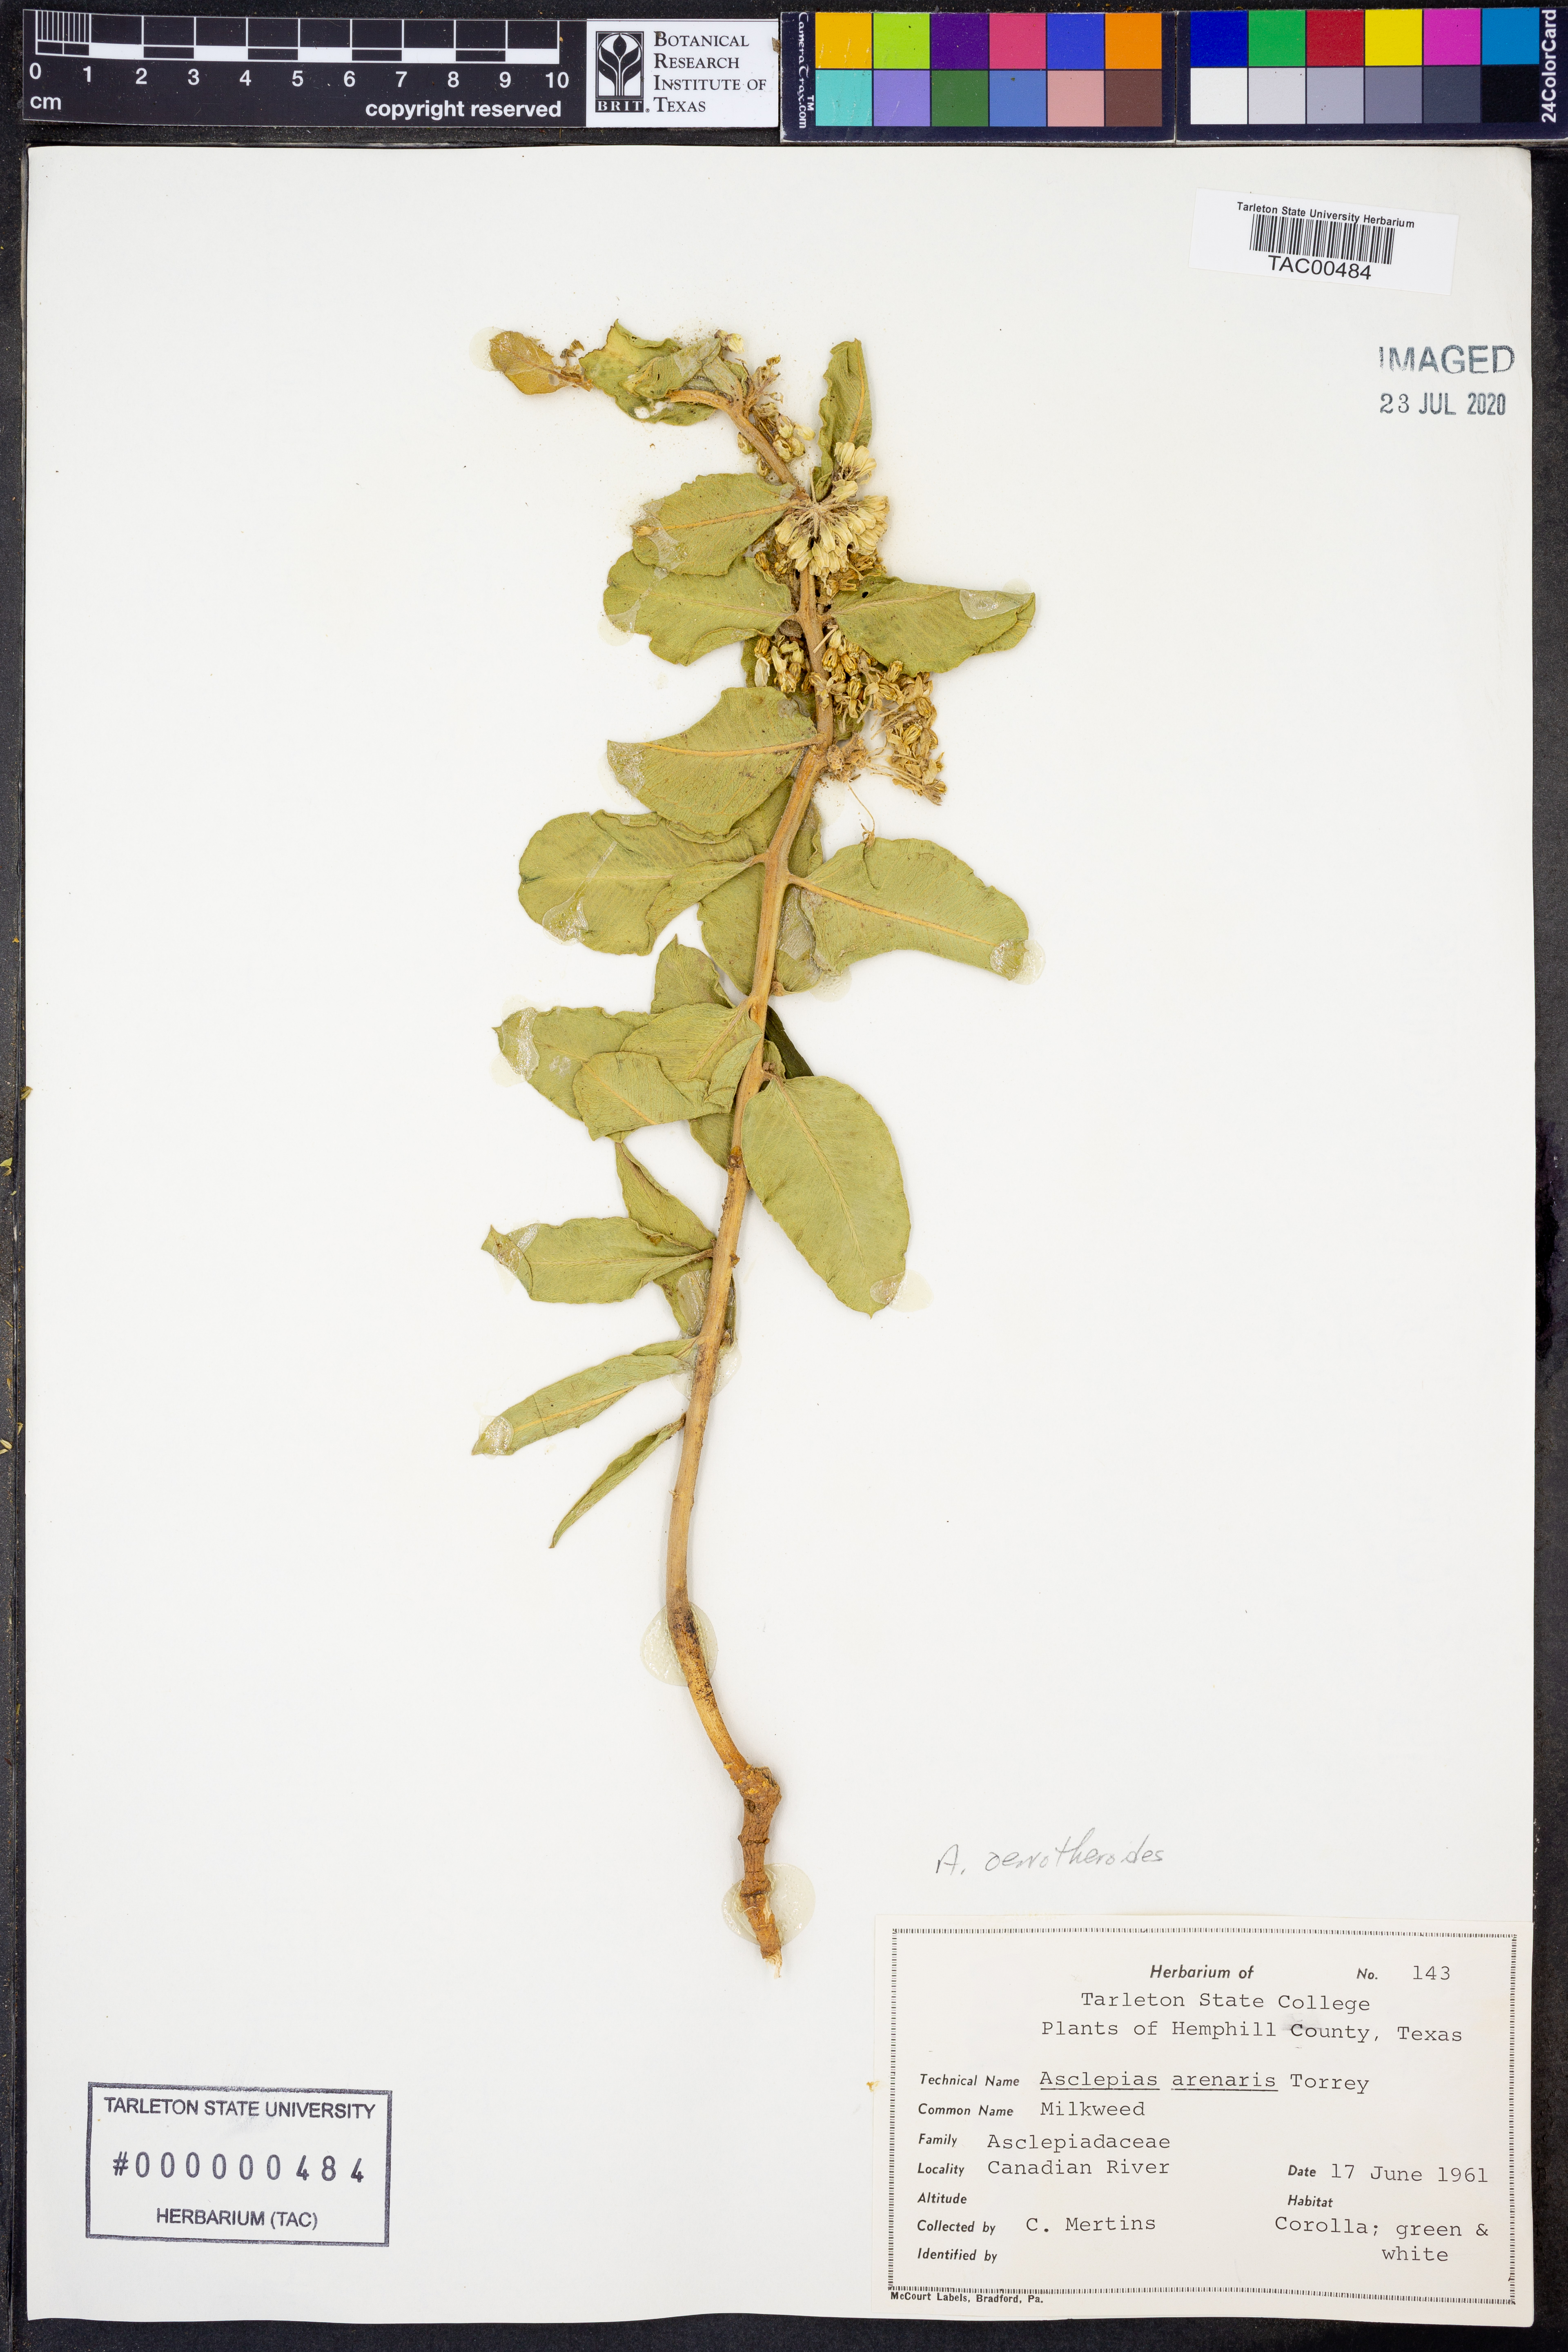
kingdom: Plantae
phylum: Tracheophyta
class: Magnoliopsida
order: Gentianales
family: Apocynaceae
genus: Asclepias
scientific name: Asclepias oenotheroides
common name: Zizotes milkweed
